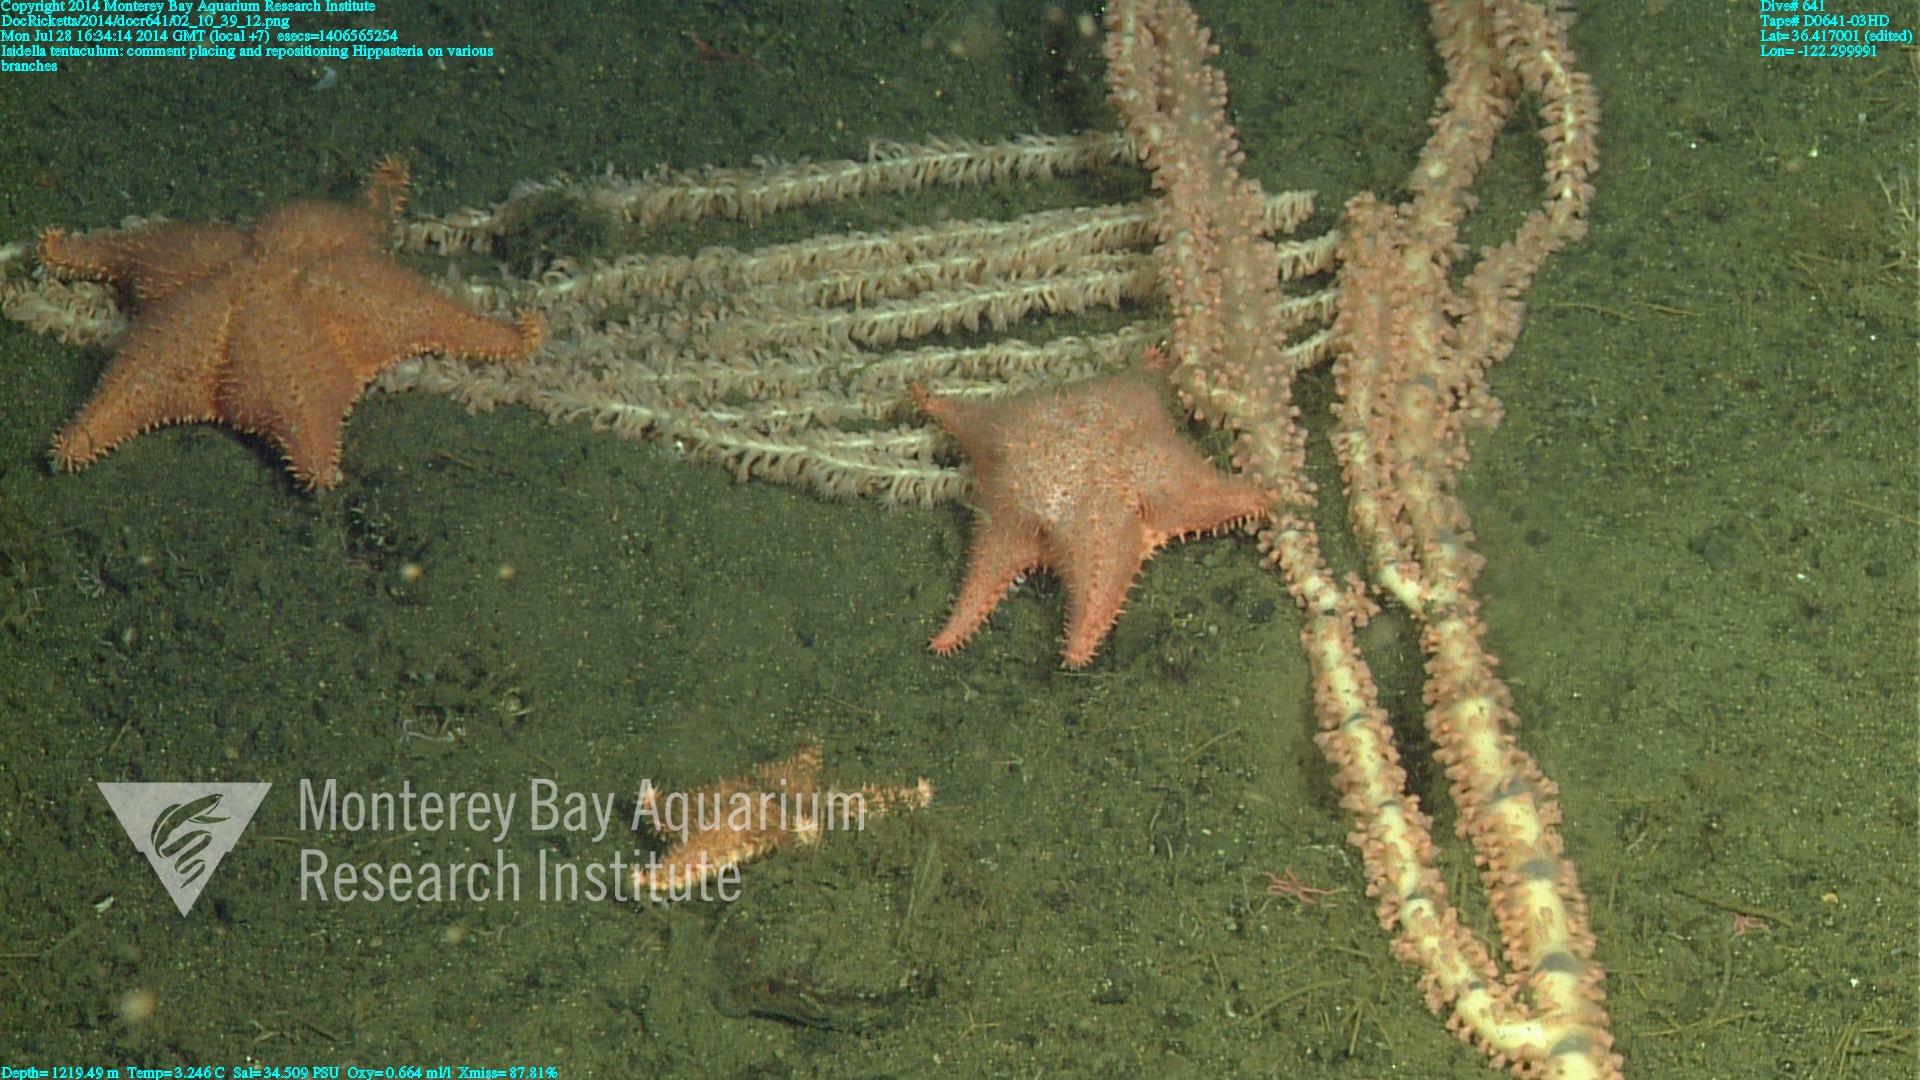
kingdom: Animalia
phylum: Cnidaria
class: Anthozoa
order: Scleralcyonacea
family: Keratoisididae
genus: Isidella
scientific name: Isidella tentaculum
